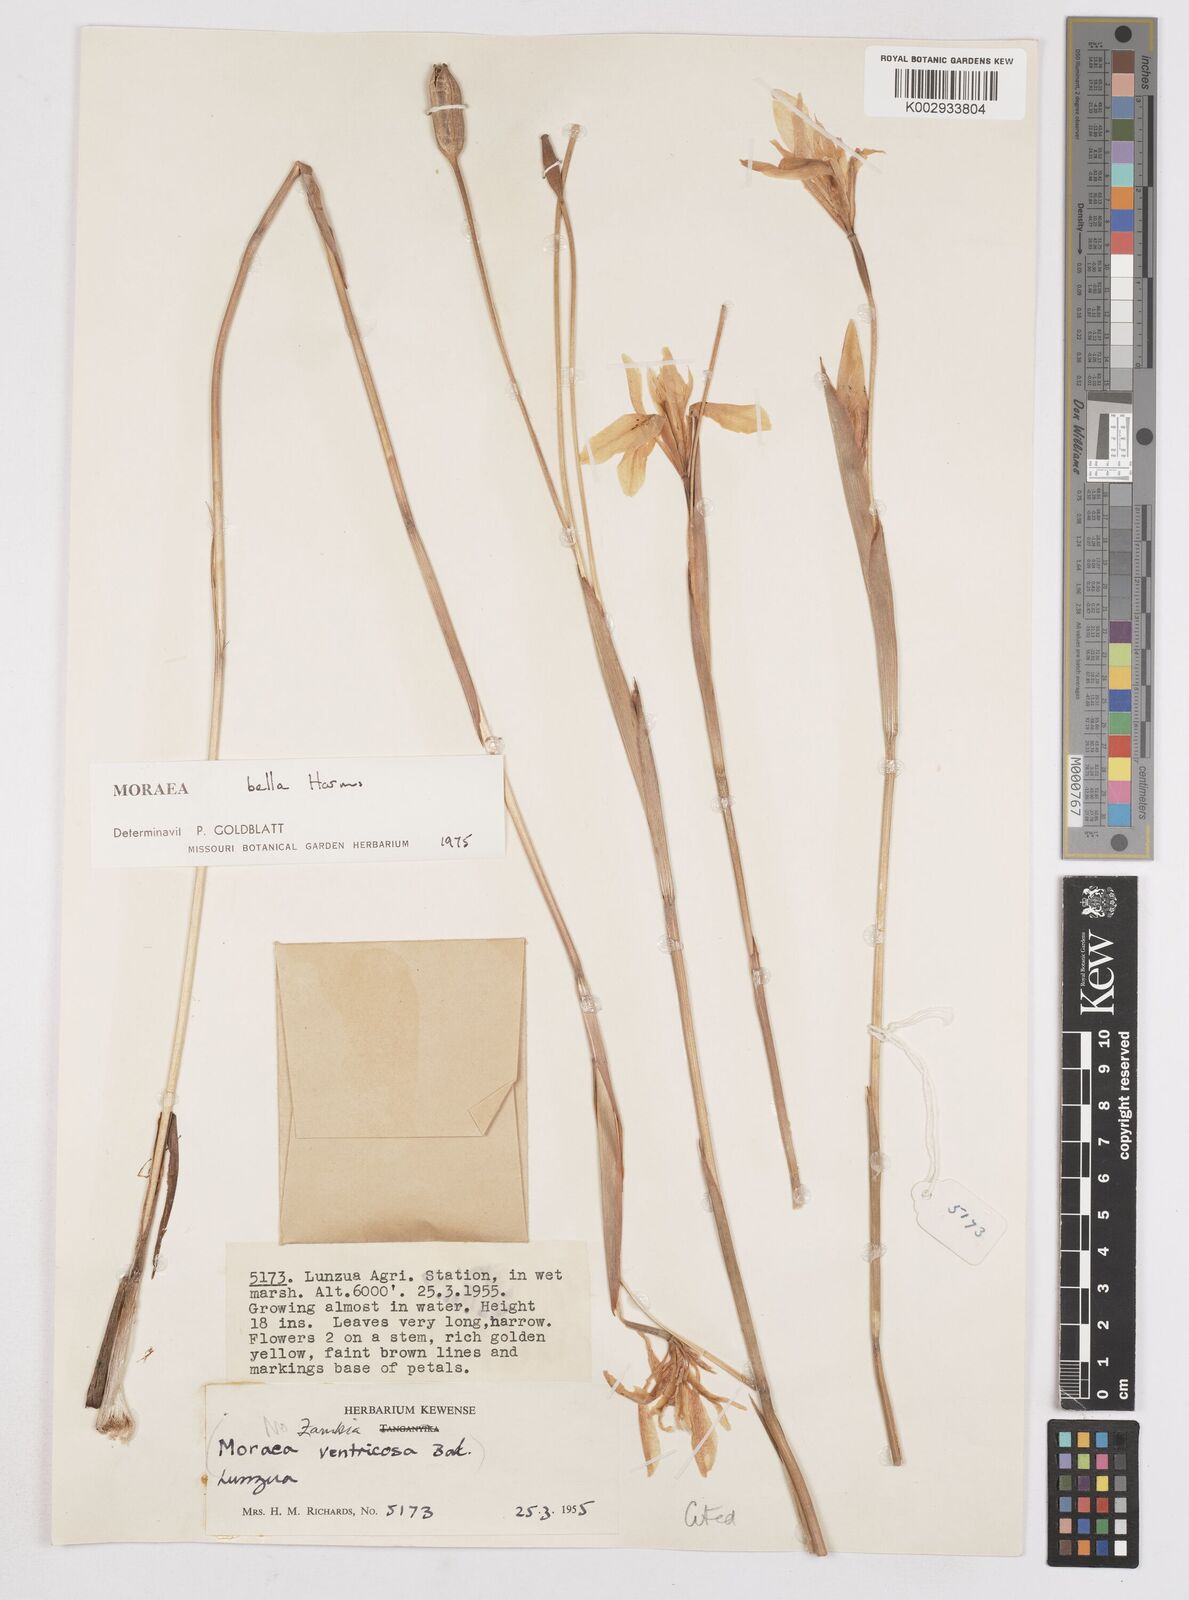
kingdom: Plantae
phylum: Tracheophyta
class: Liliopsida
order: Asparagales
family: Iridaceae
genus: Moraea
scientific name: Moraea bella
